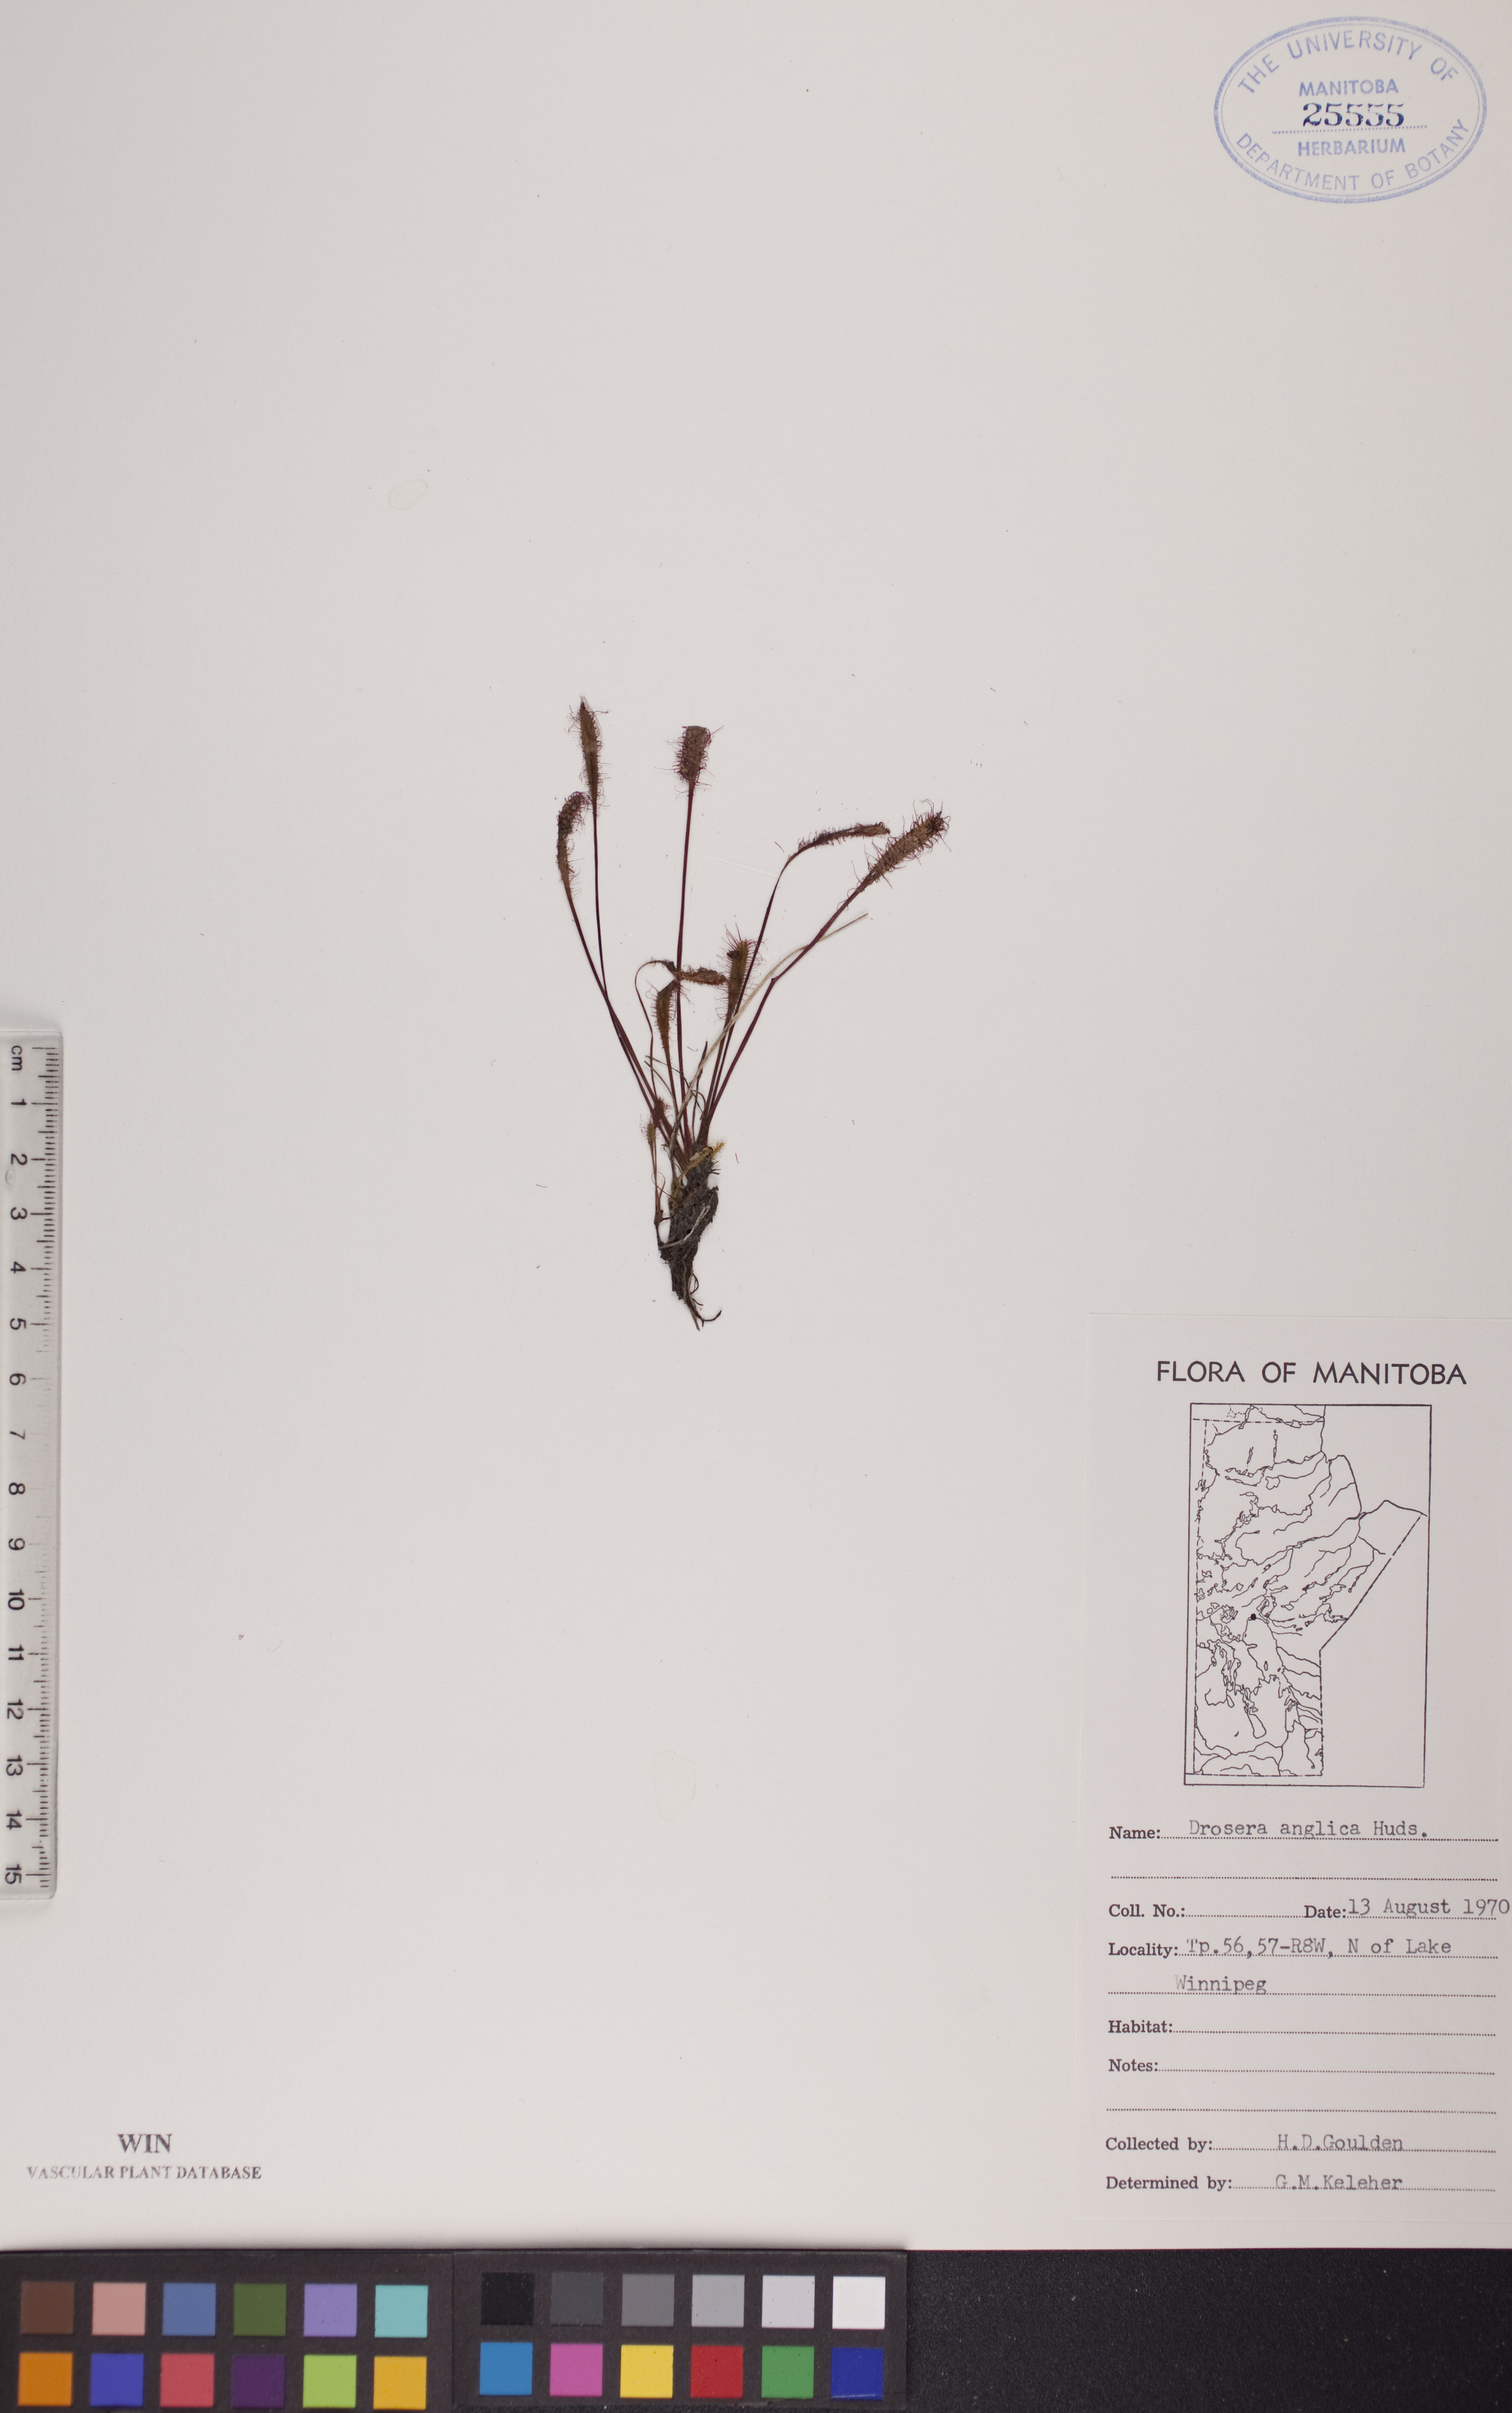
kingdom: Plantae
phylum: Tracheophyta
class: Magnoliopsida
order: Caryophyllales
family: Droseraceae
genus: Drosera
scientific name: Drosera anglica
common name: Great sundew
